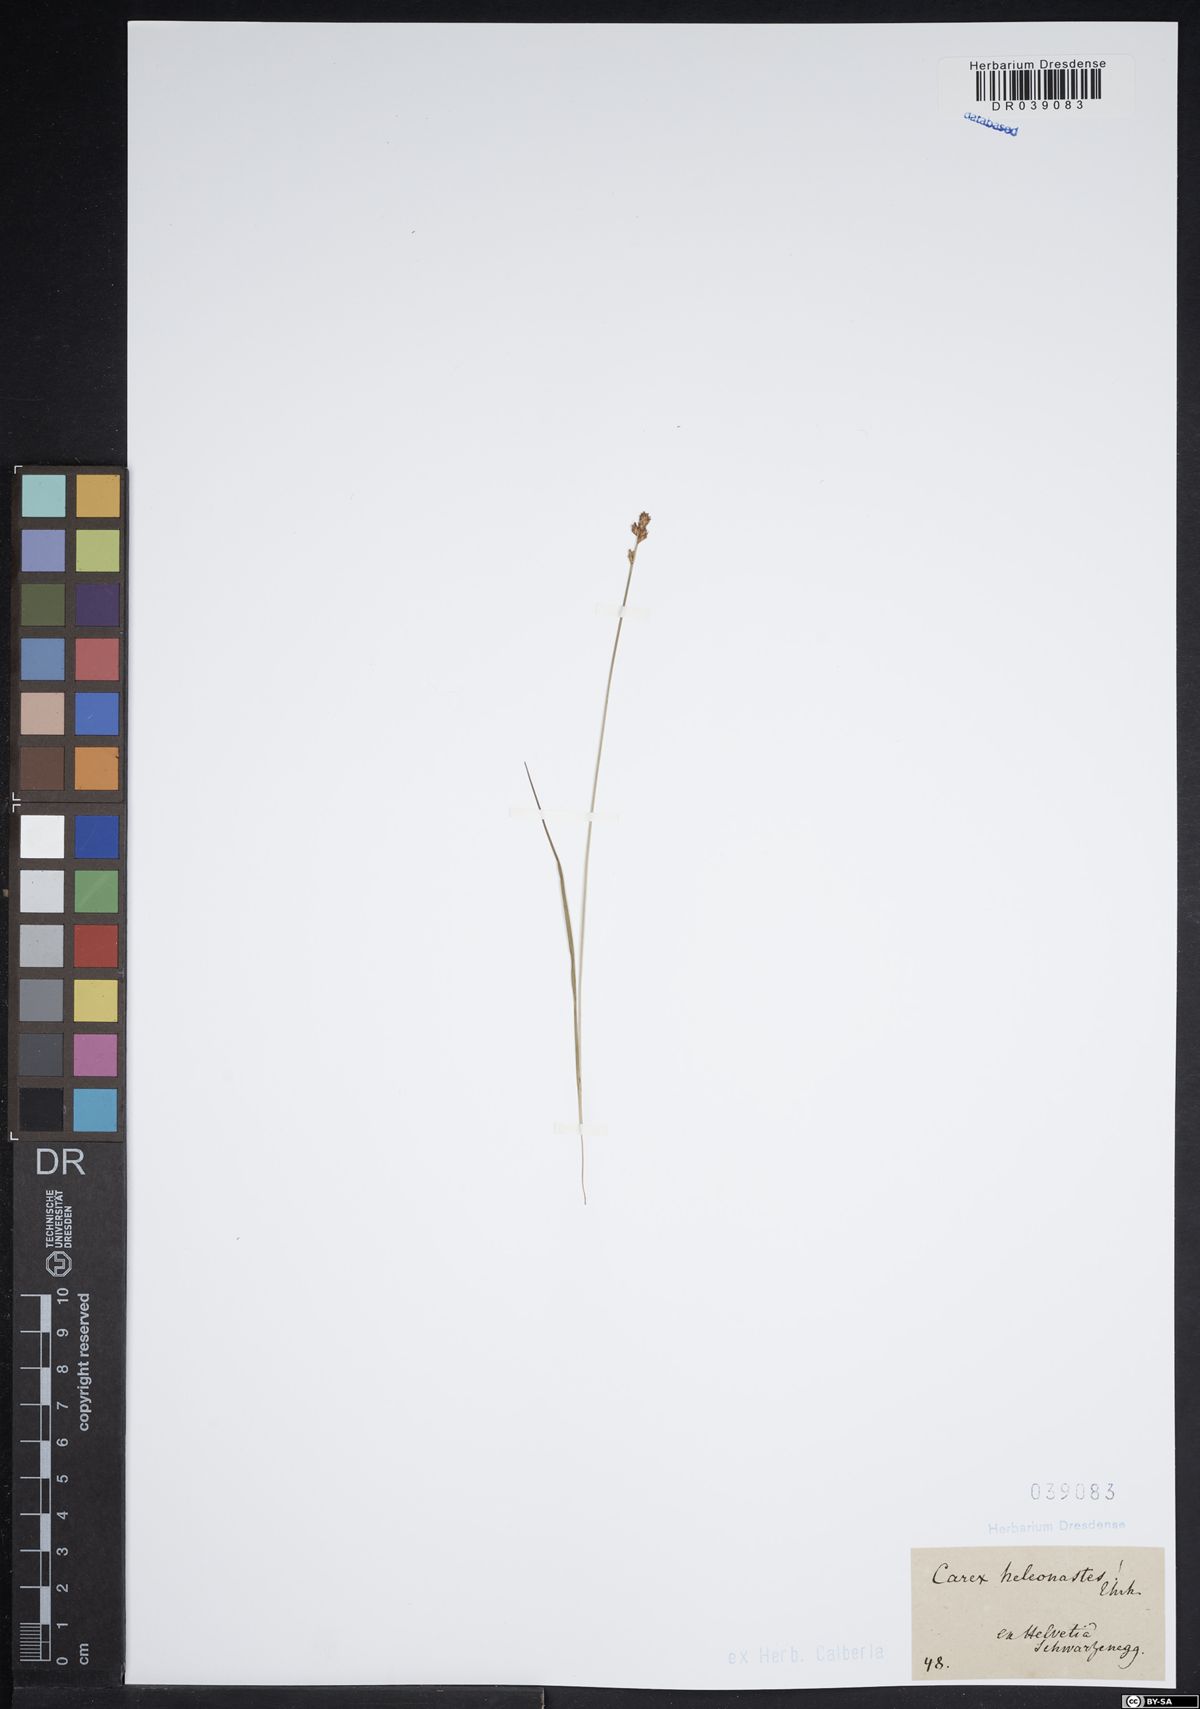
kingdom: Plantae
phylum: Tracheophyta
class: Liliopsida
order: Poales
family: Cyperaceae
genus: Carex
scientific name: Carex heleonastes
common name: Hudson bay sedge
